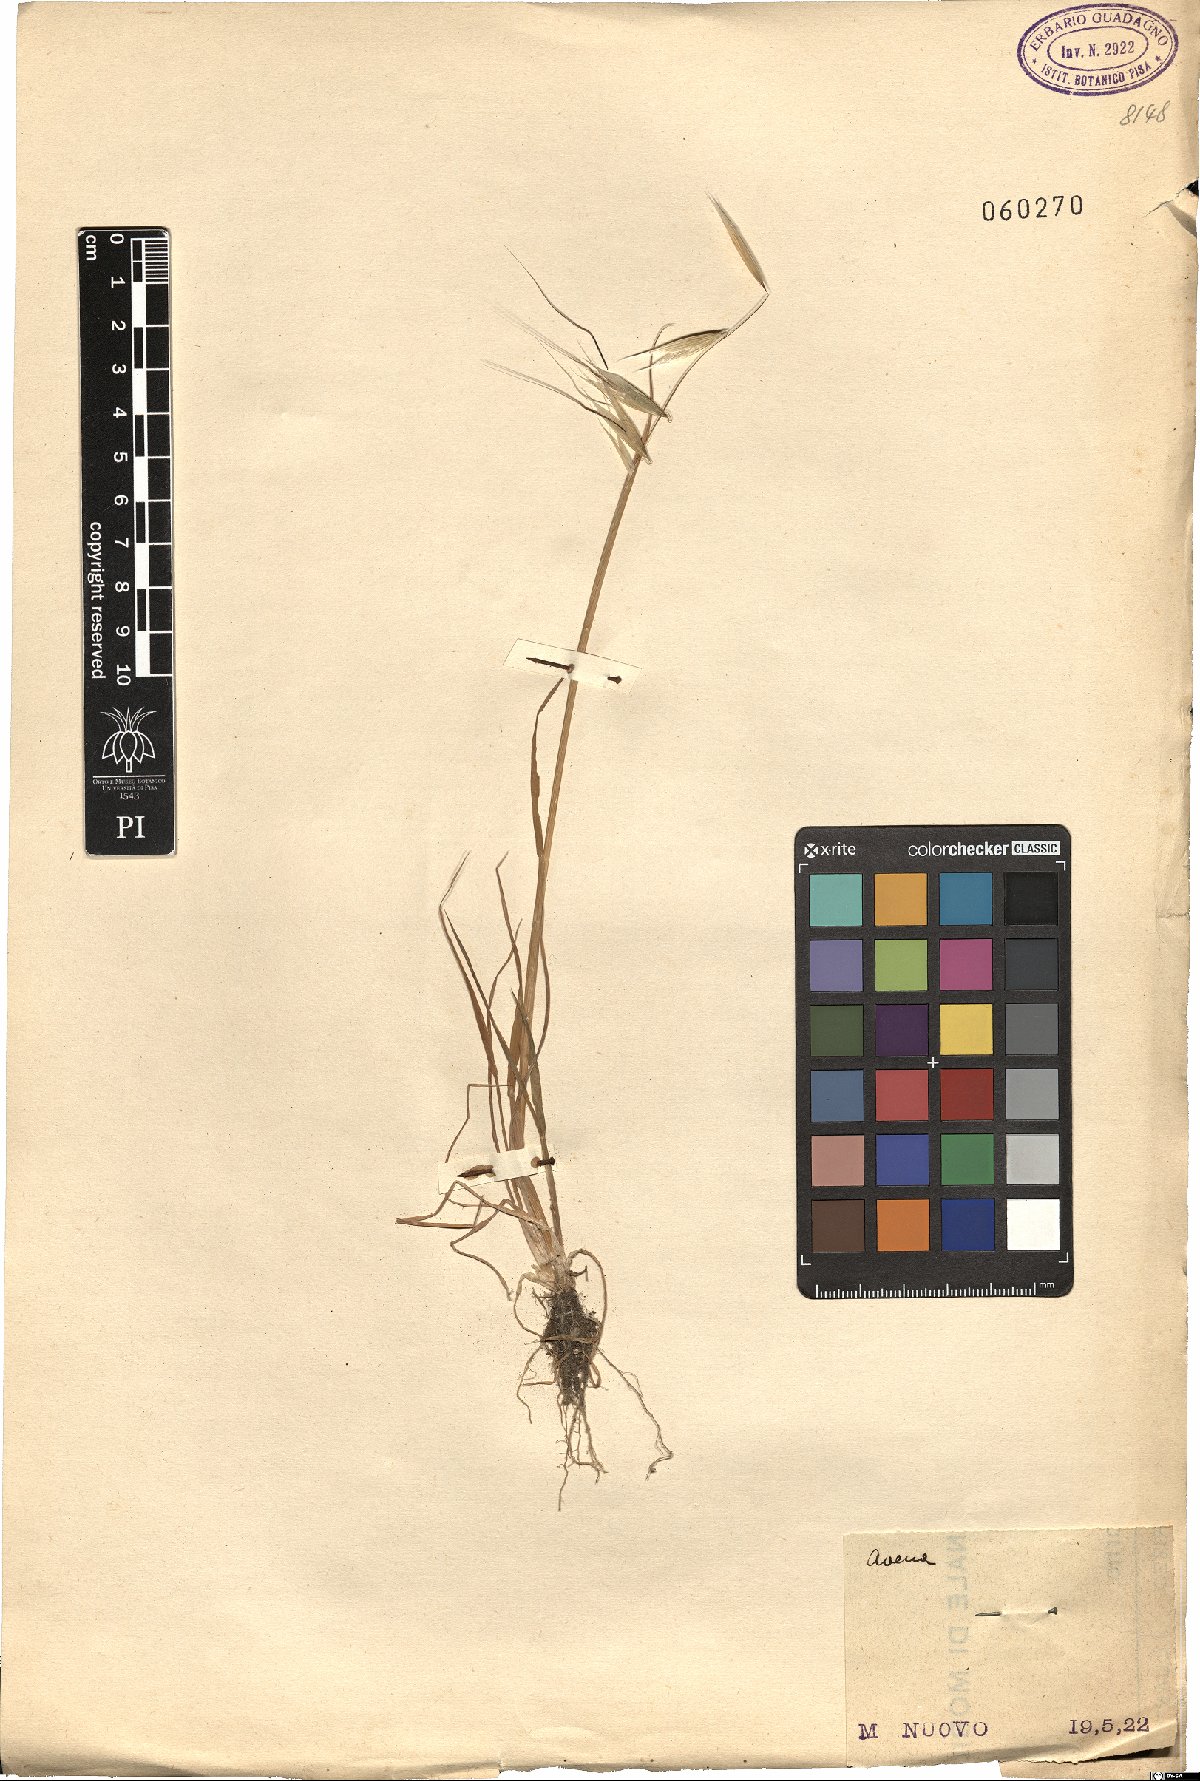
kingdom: Plantae
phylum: Tracheophyta
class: Liliopsida
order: Poales
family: Poaceae
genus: Avena
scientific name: Avena
